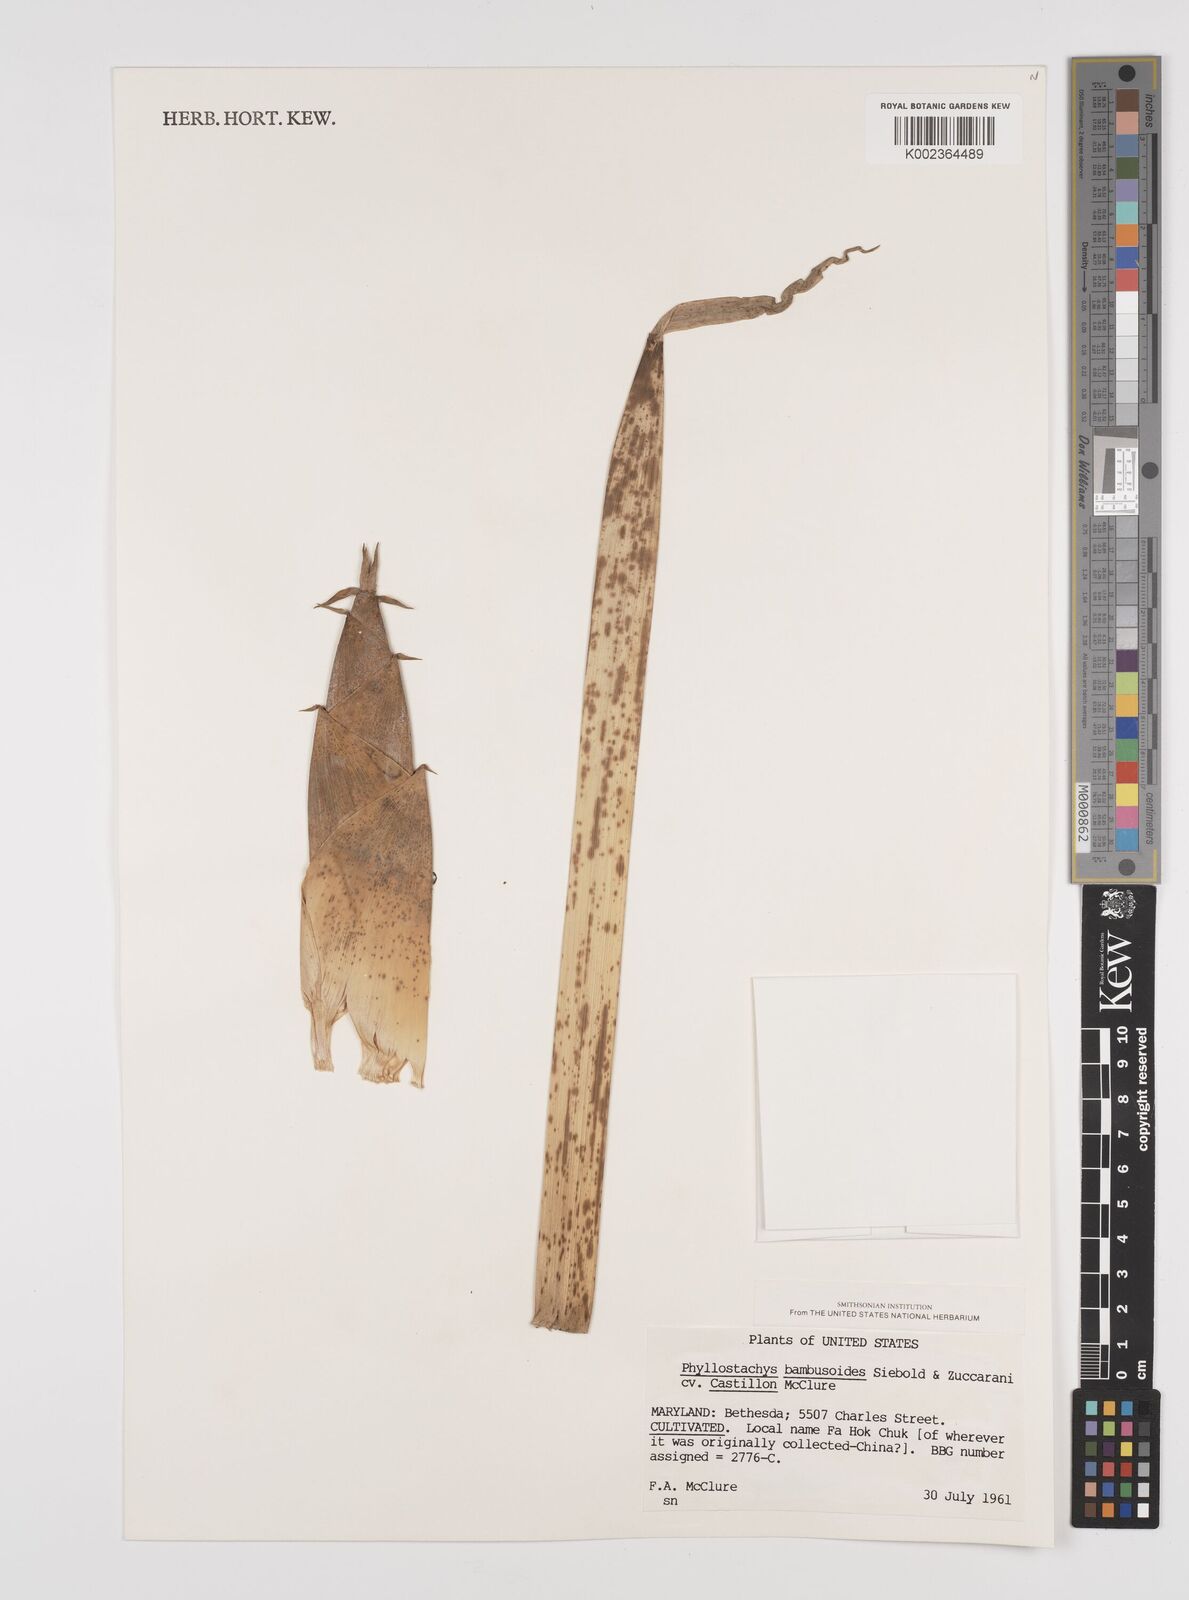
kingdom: Plantae
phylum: Tracheophyta
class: Liliopsida
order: Poales
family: Poaceae
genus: Phyllostachys
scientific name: Phyllostachys reticulata
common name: Bamboo
